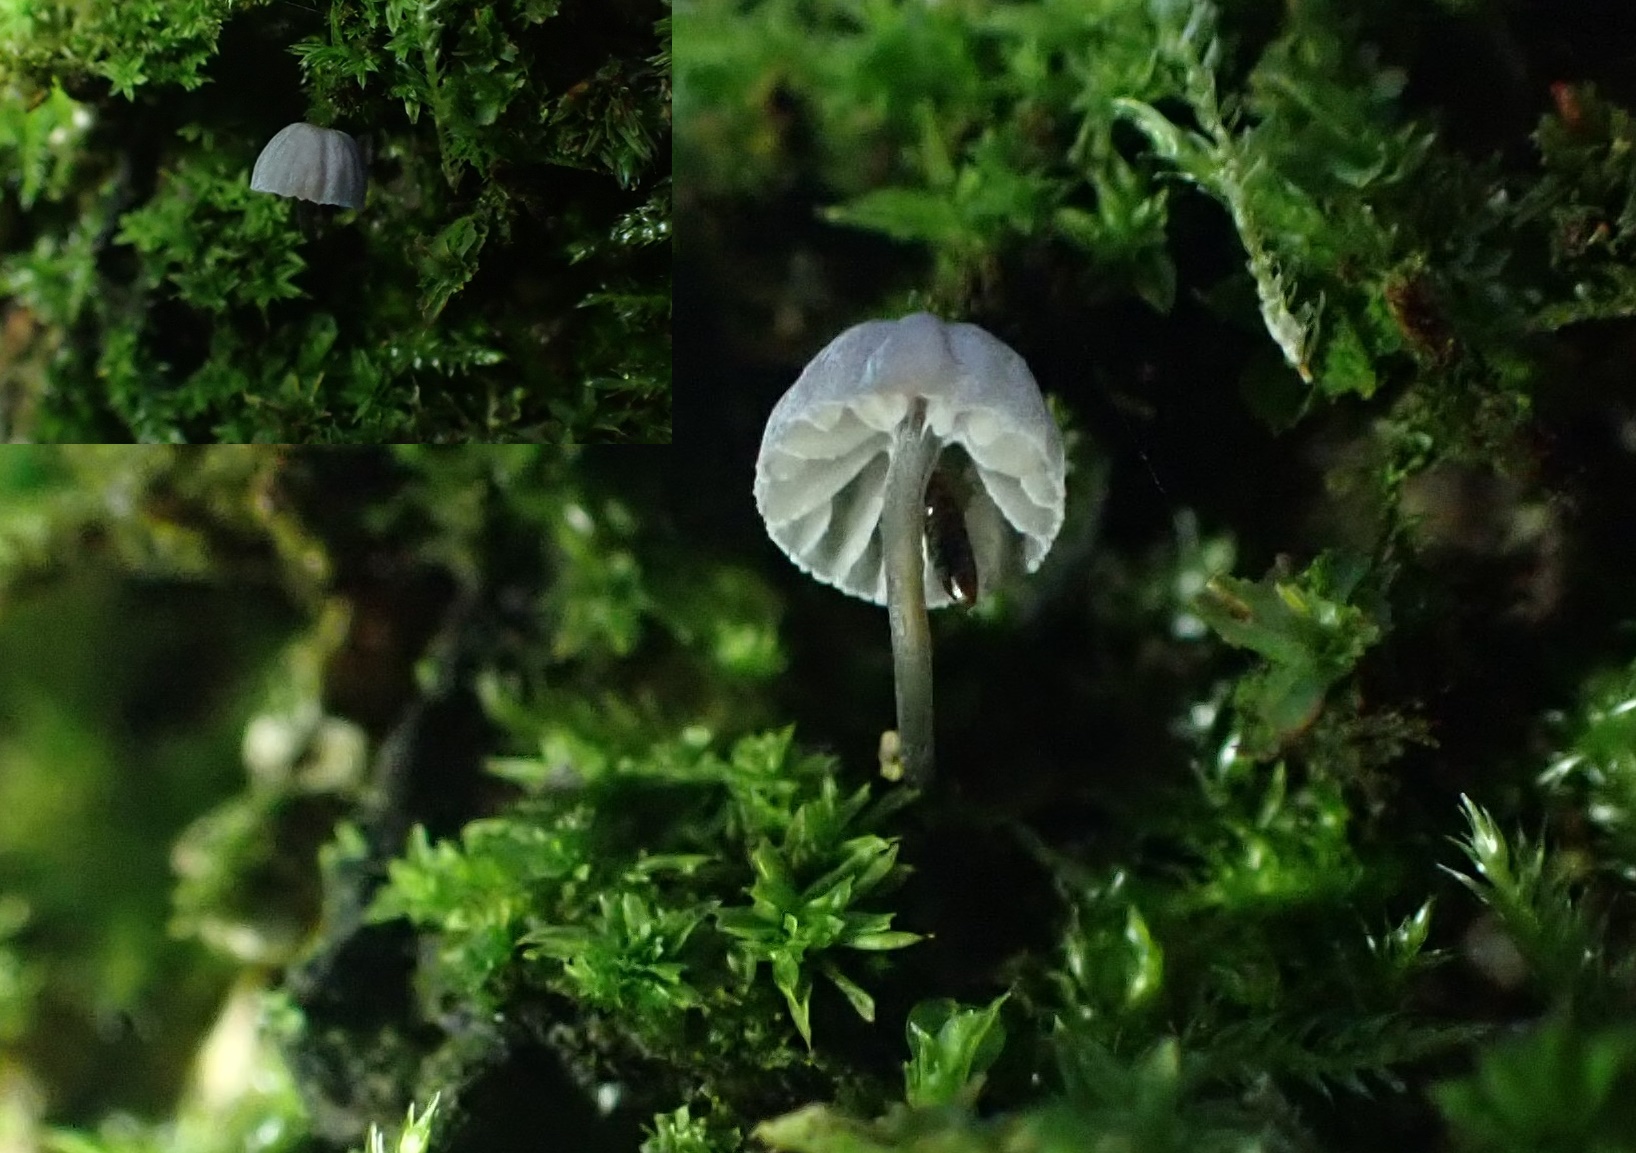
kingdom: Fungi
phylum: Basidiomycota
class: Agaricomycetes
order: Agaricales
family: Mycenaceae
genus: Mycena
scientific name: Mycena pseudocorticola
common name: gråblå bark-huesvamp
